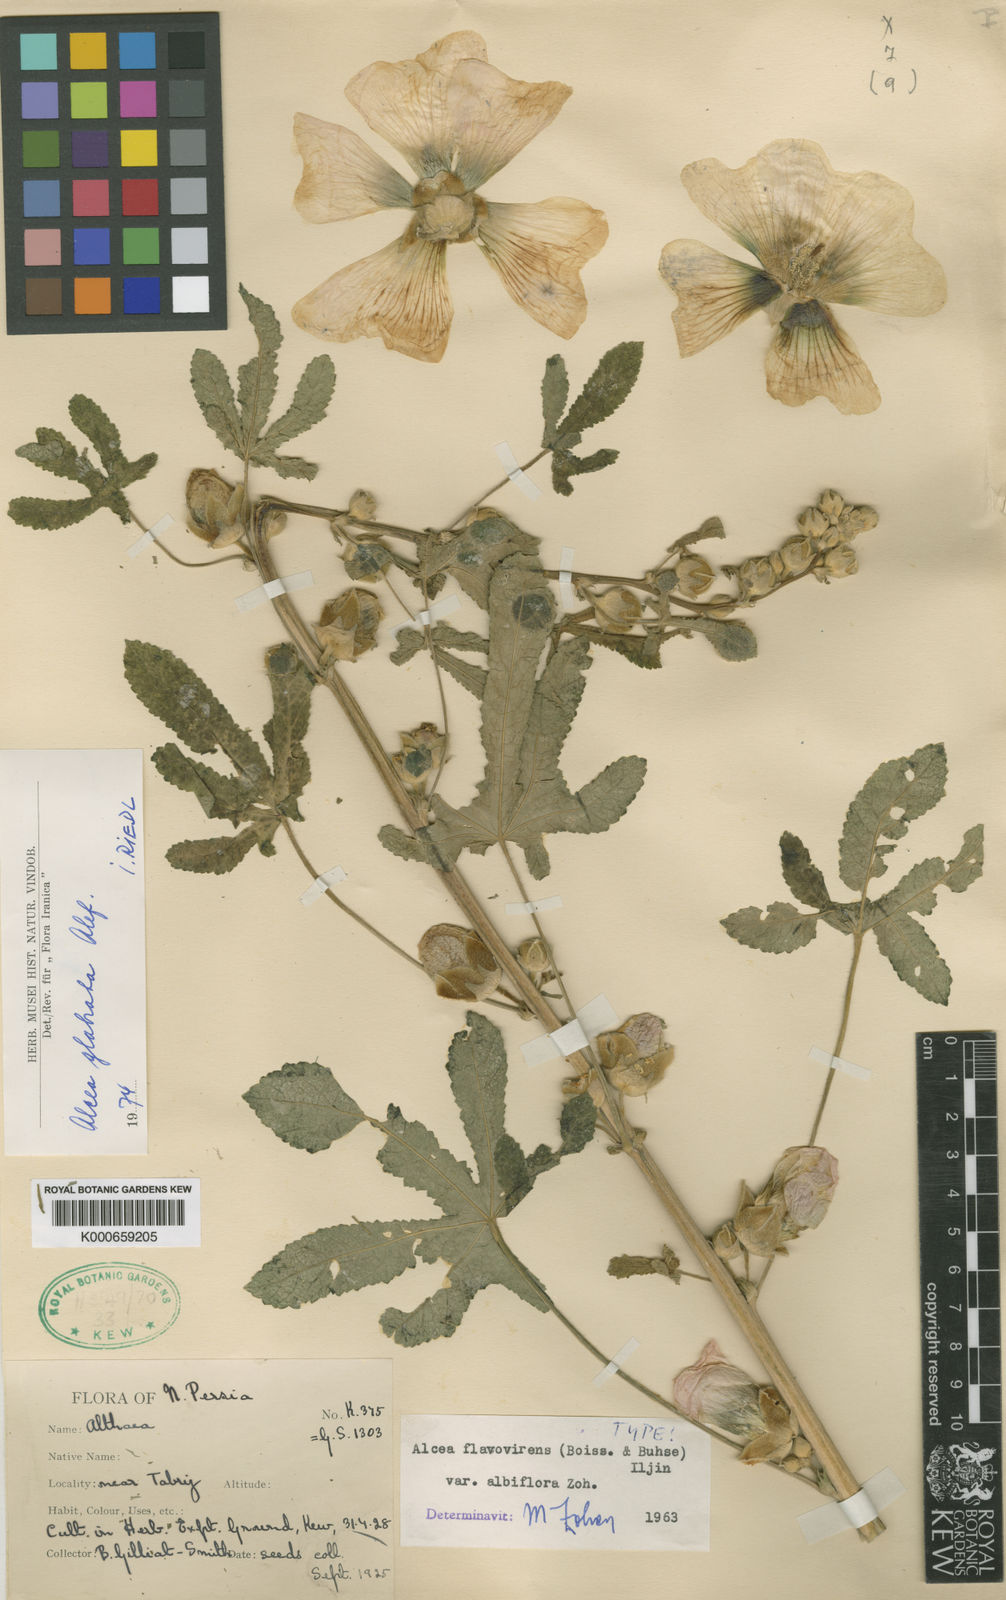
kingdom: Plantae
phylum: Tracheophyta
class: Magnoliopsida
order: Malvales
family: Malvaceae
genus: Alcea
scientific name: Alcea glabrata
